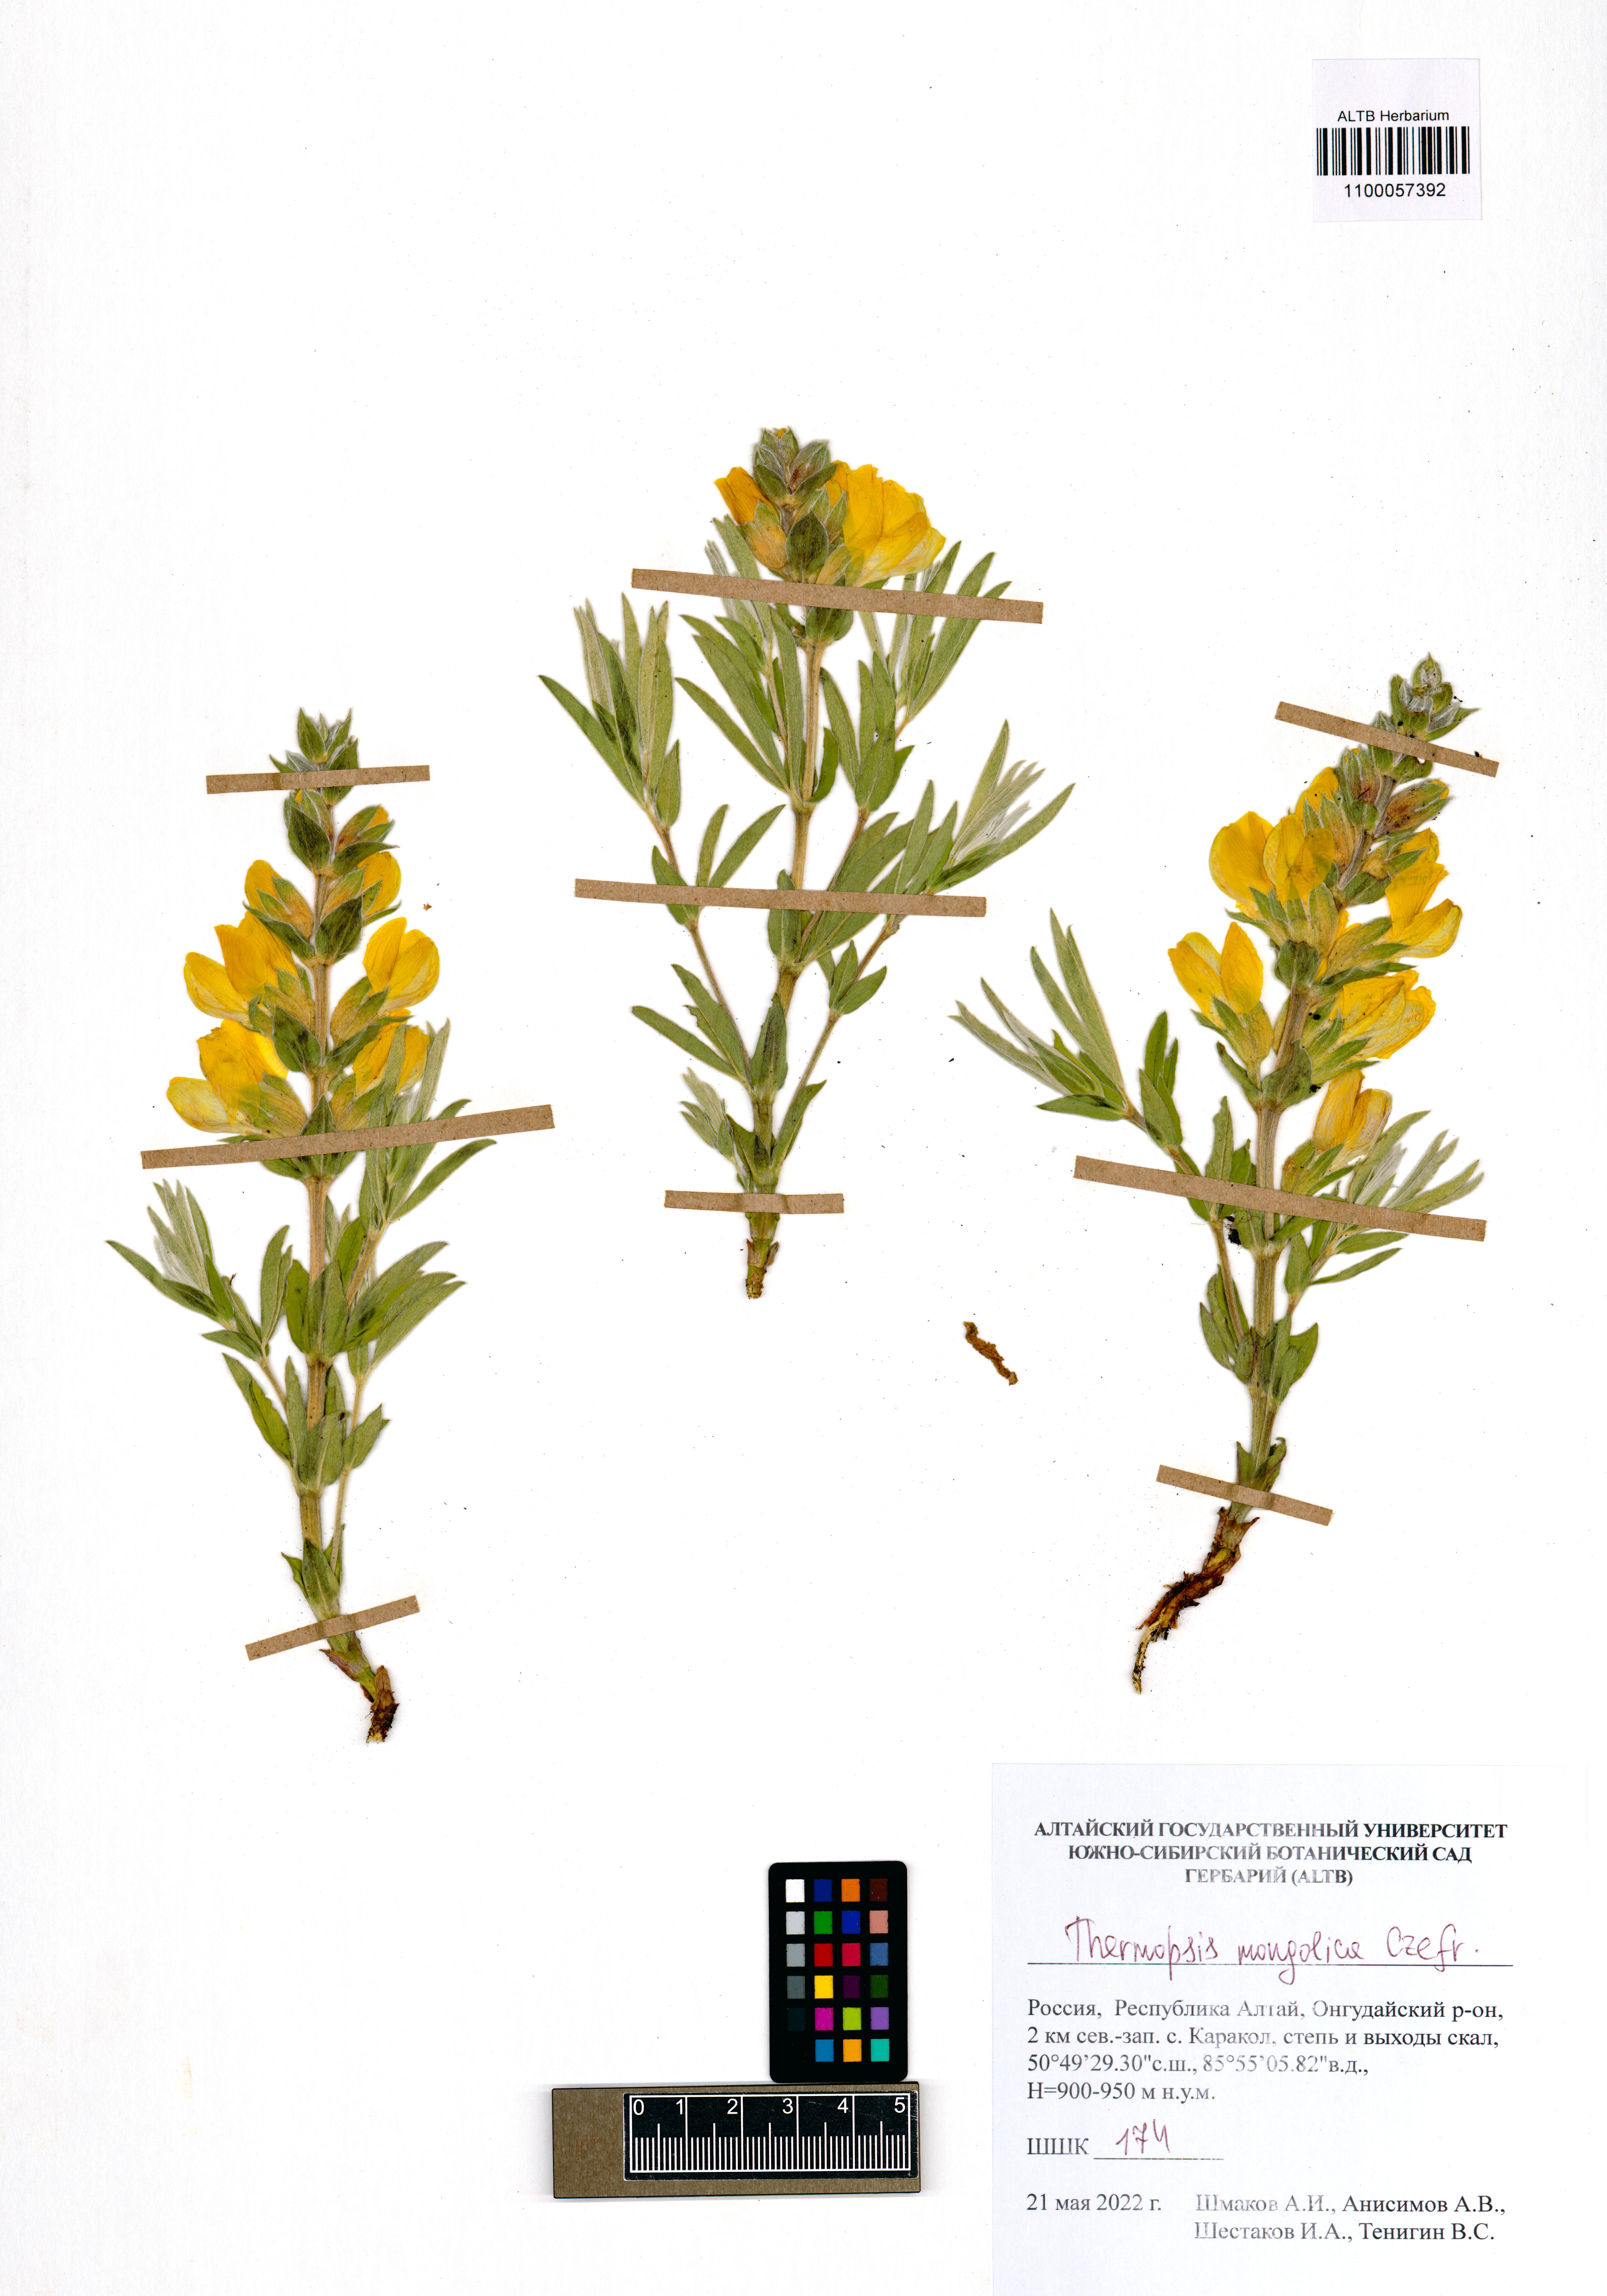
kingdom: Plantae
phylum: Tracheophyta
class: Magnoliopsida
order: Fabales
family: Fabaceae
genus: Thermopsis
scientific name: Thermopsis mongolica
